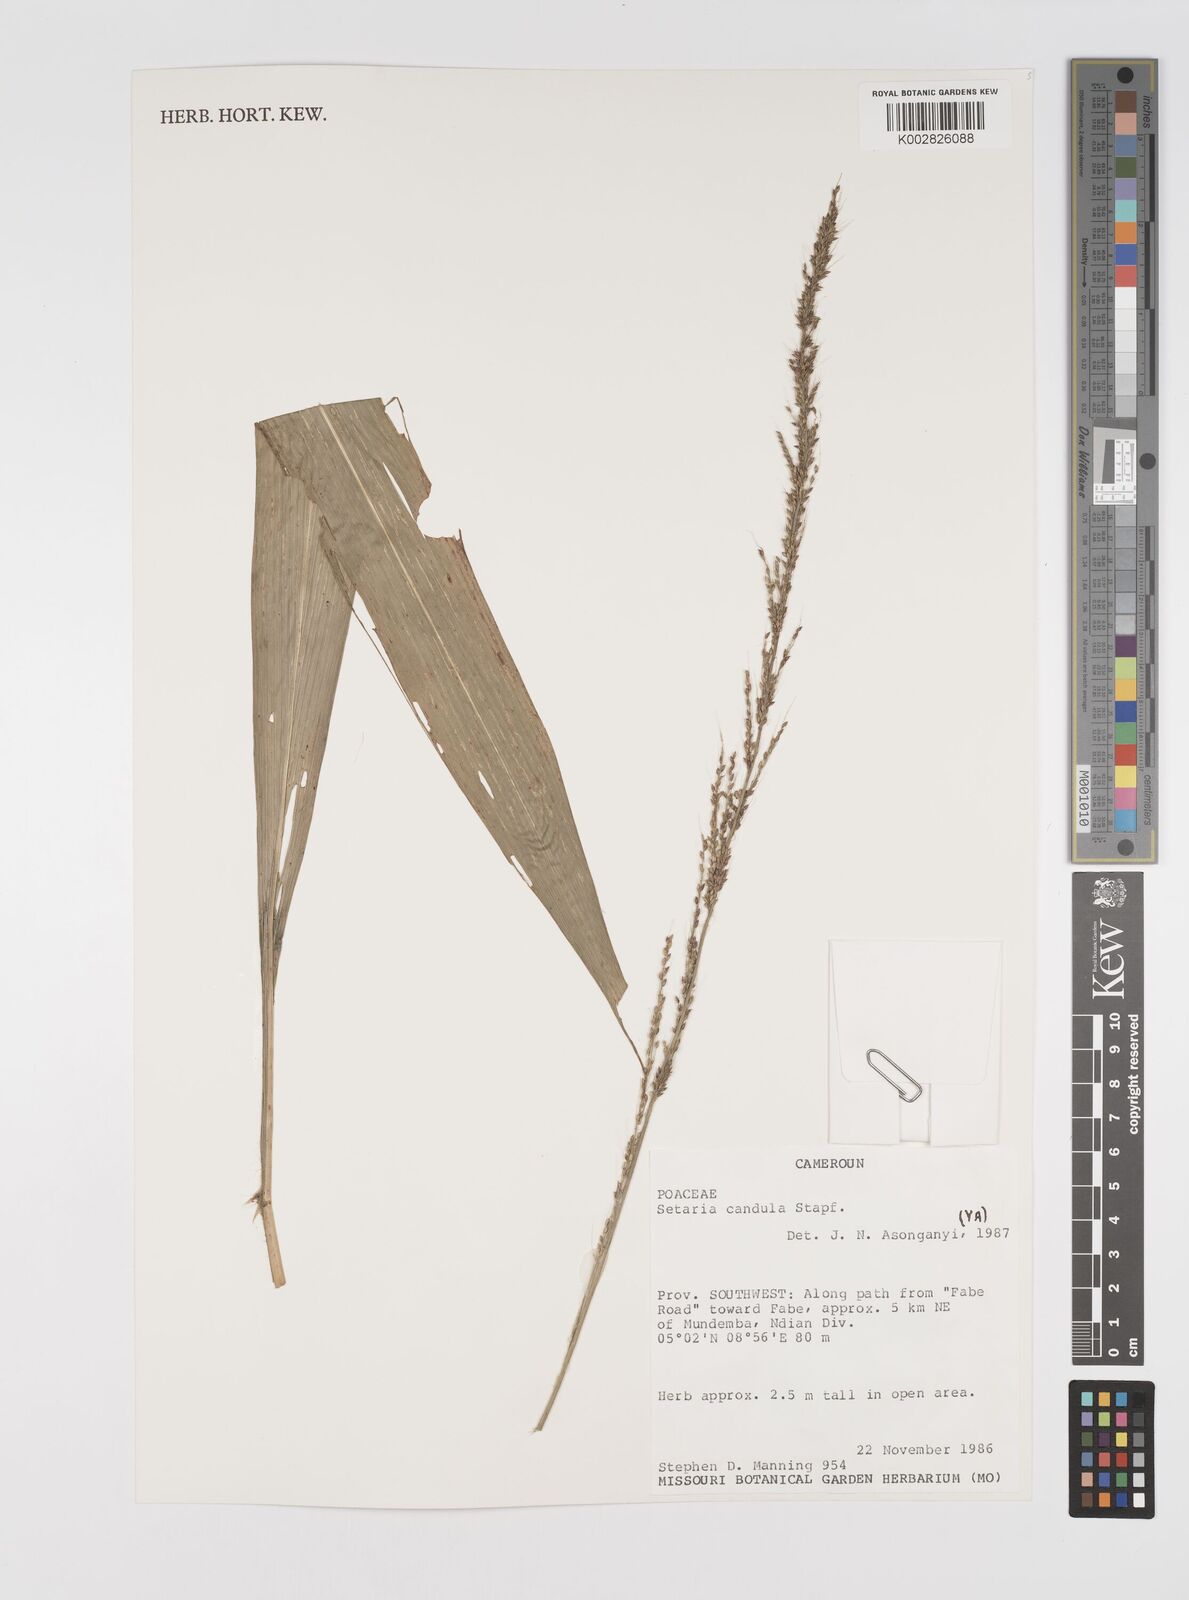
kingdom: Plantae
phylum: Tracheophyta
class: Liliopsida
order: Poales
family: Poaceae
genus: Setaria
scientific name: Setaria
